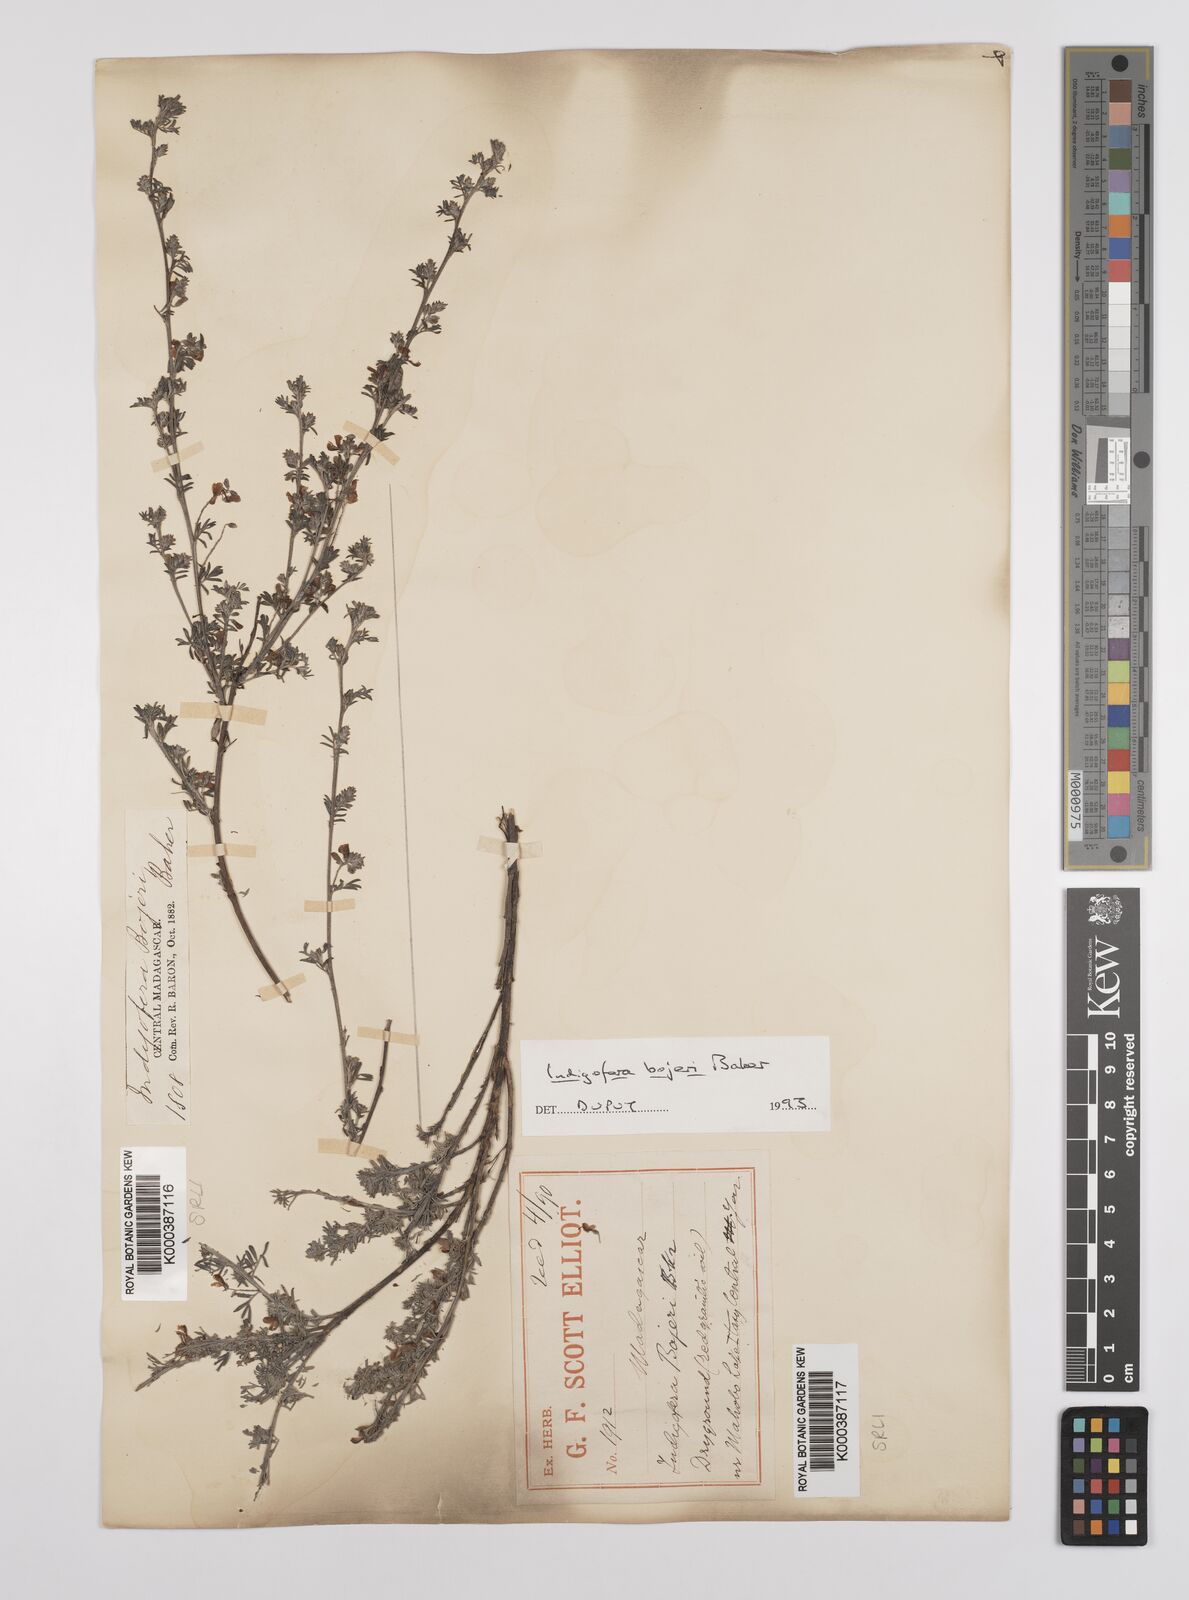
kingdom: Plantae
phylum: Tracheophyta
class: Magnoliopsida
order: Fabales
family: Fabaceae
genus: Indigofera
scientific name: Indigofera bojeri
